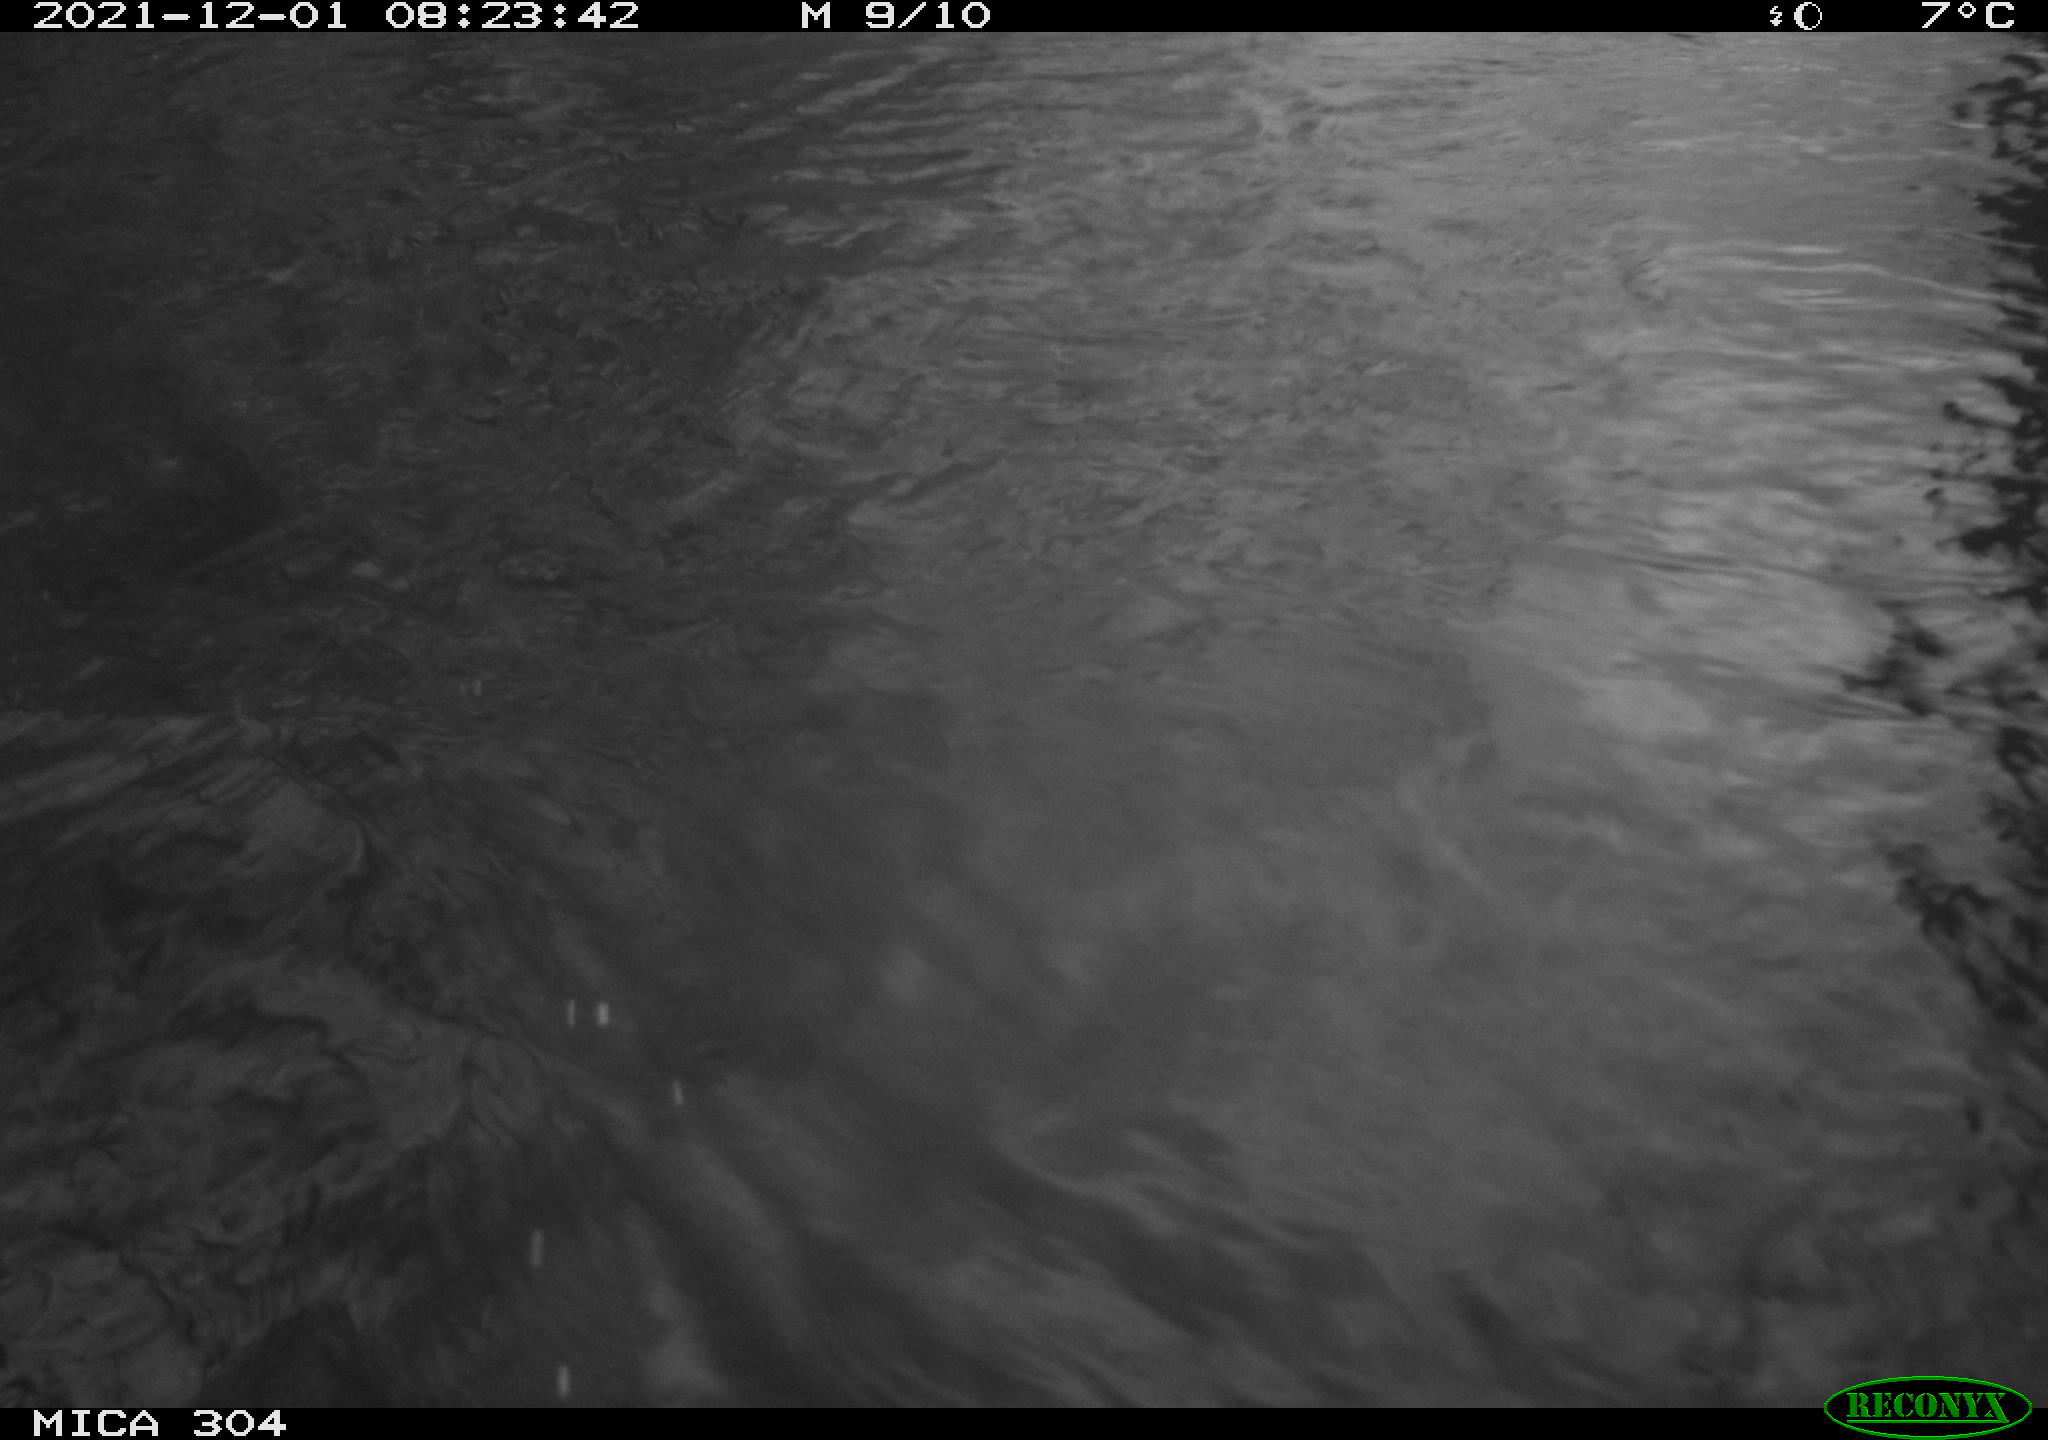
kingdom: Animalia
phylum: Chordata
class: Aves
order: Gruiformes
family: Rallidae
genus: Fulica
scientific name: Fulica atra
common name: Eurasian coot
